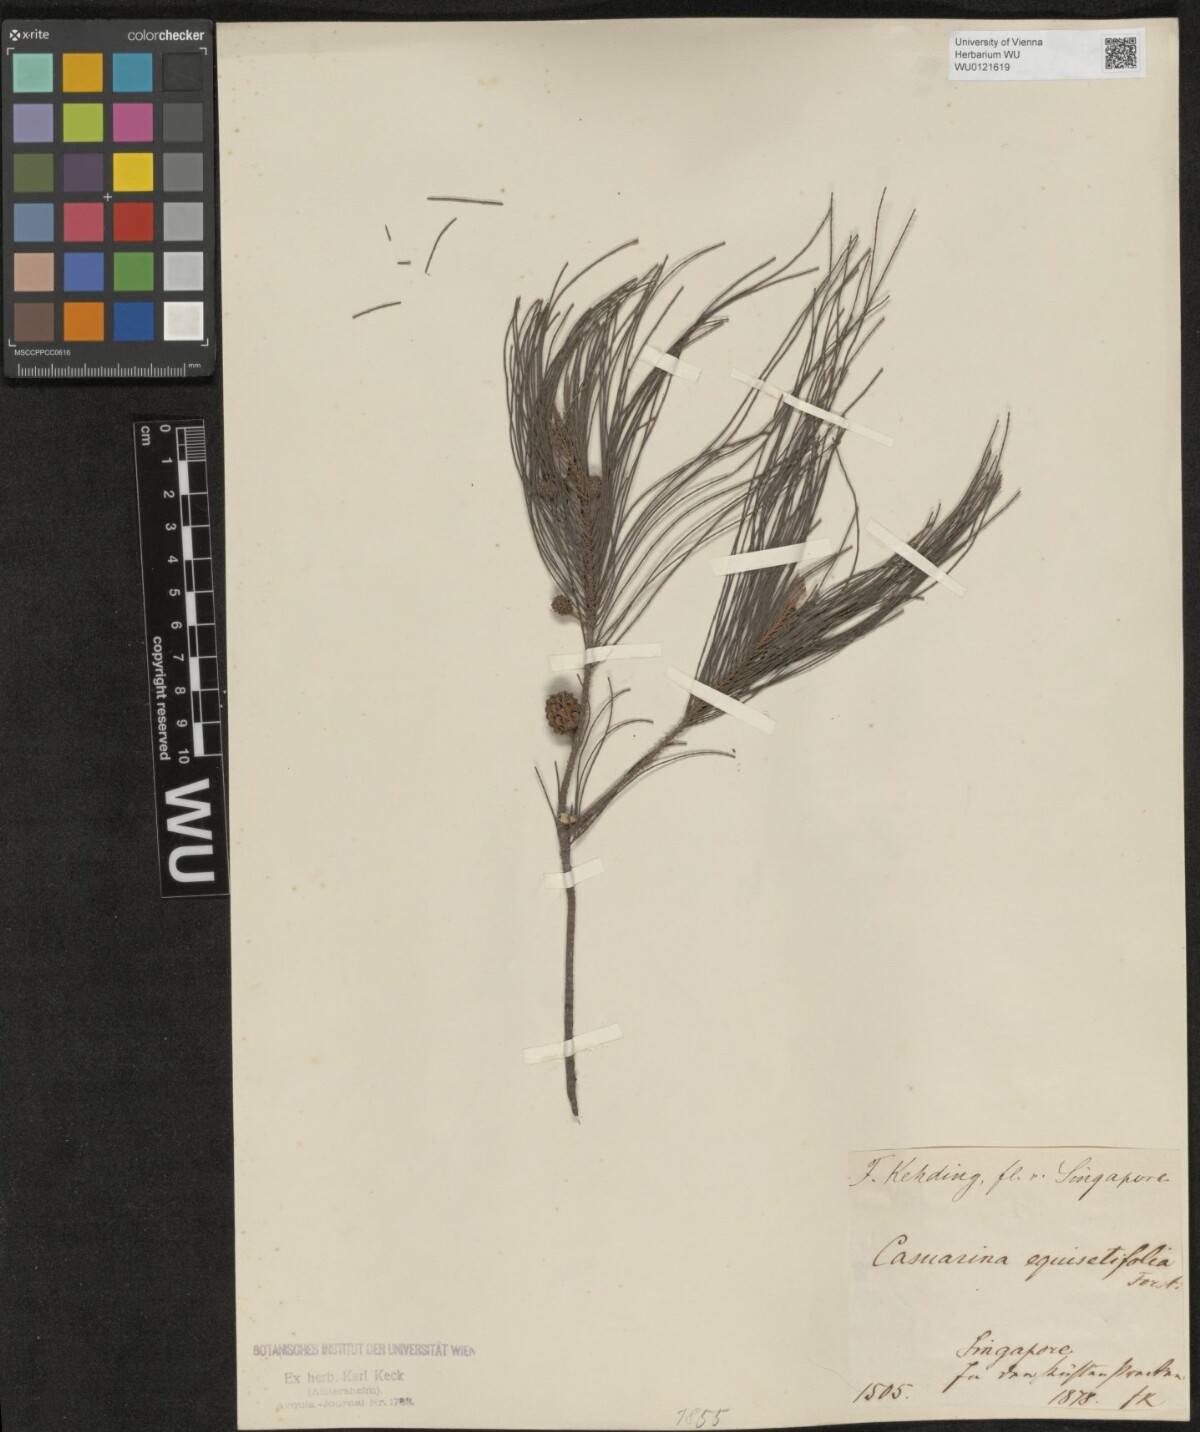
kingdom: Plantae
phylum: Tracheophyta
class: Magnoliopsida
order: Fagales
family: Casuarinaceae
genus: Casuarina
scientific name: Casuarina equisetifolia
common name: Beach sheoak
